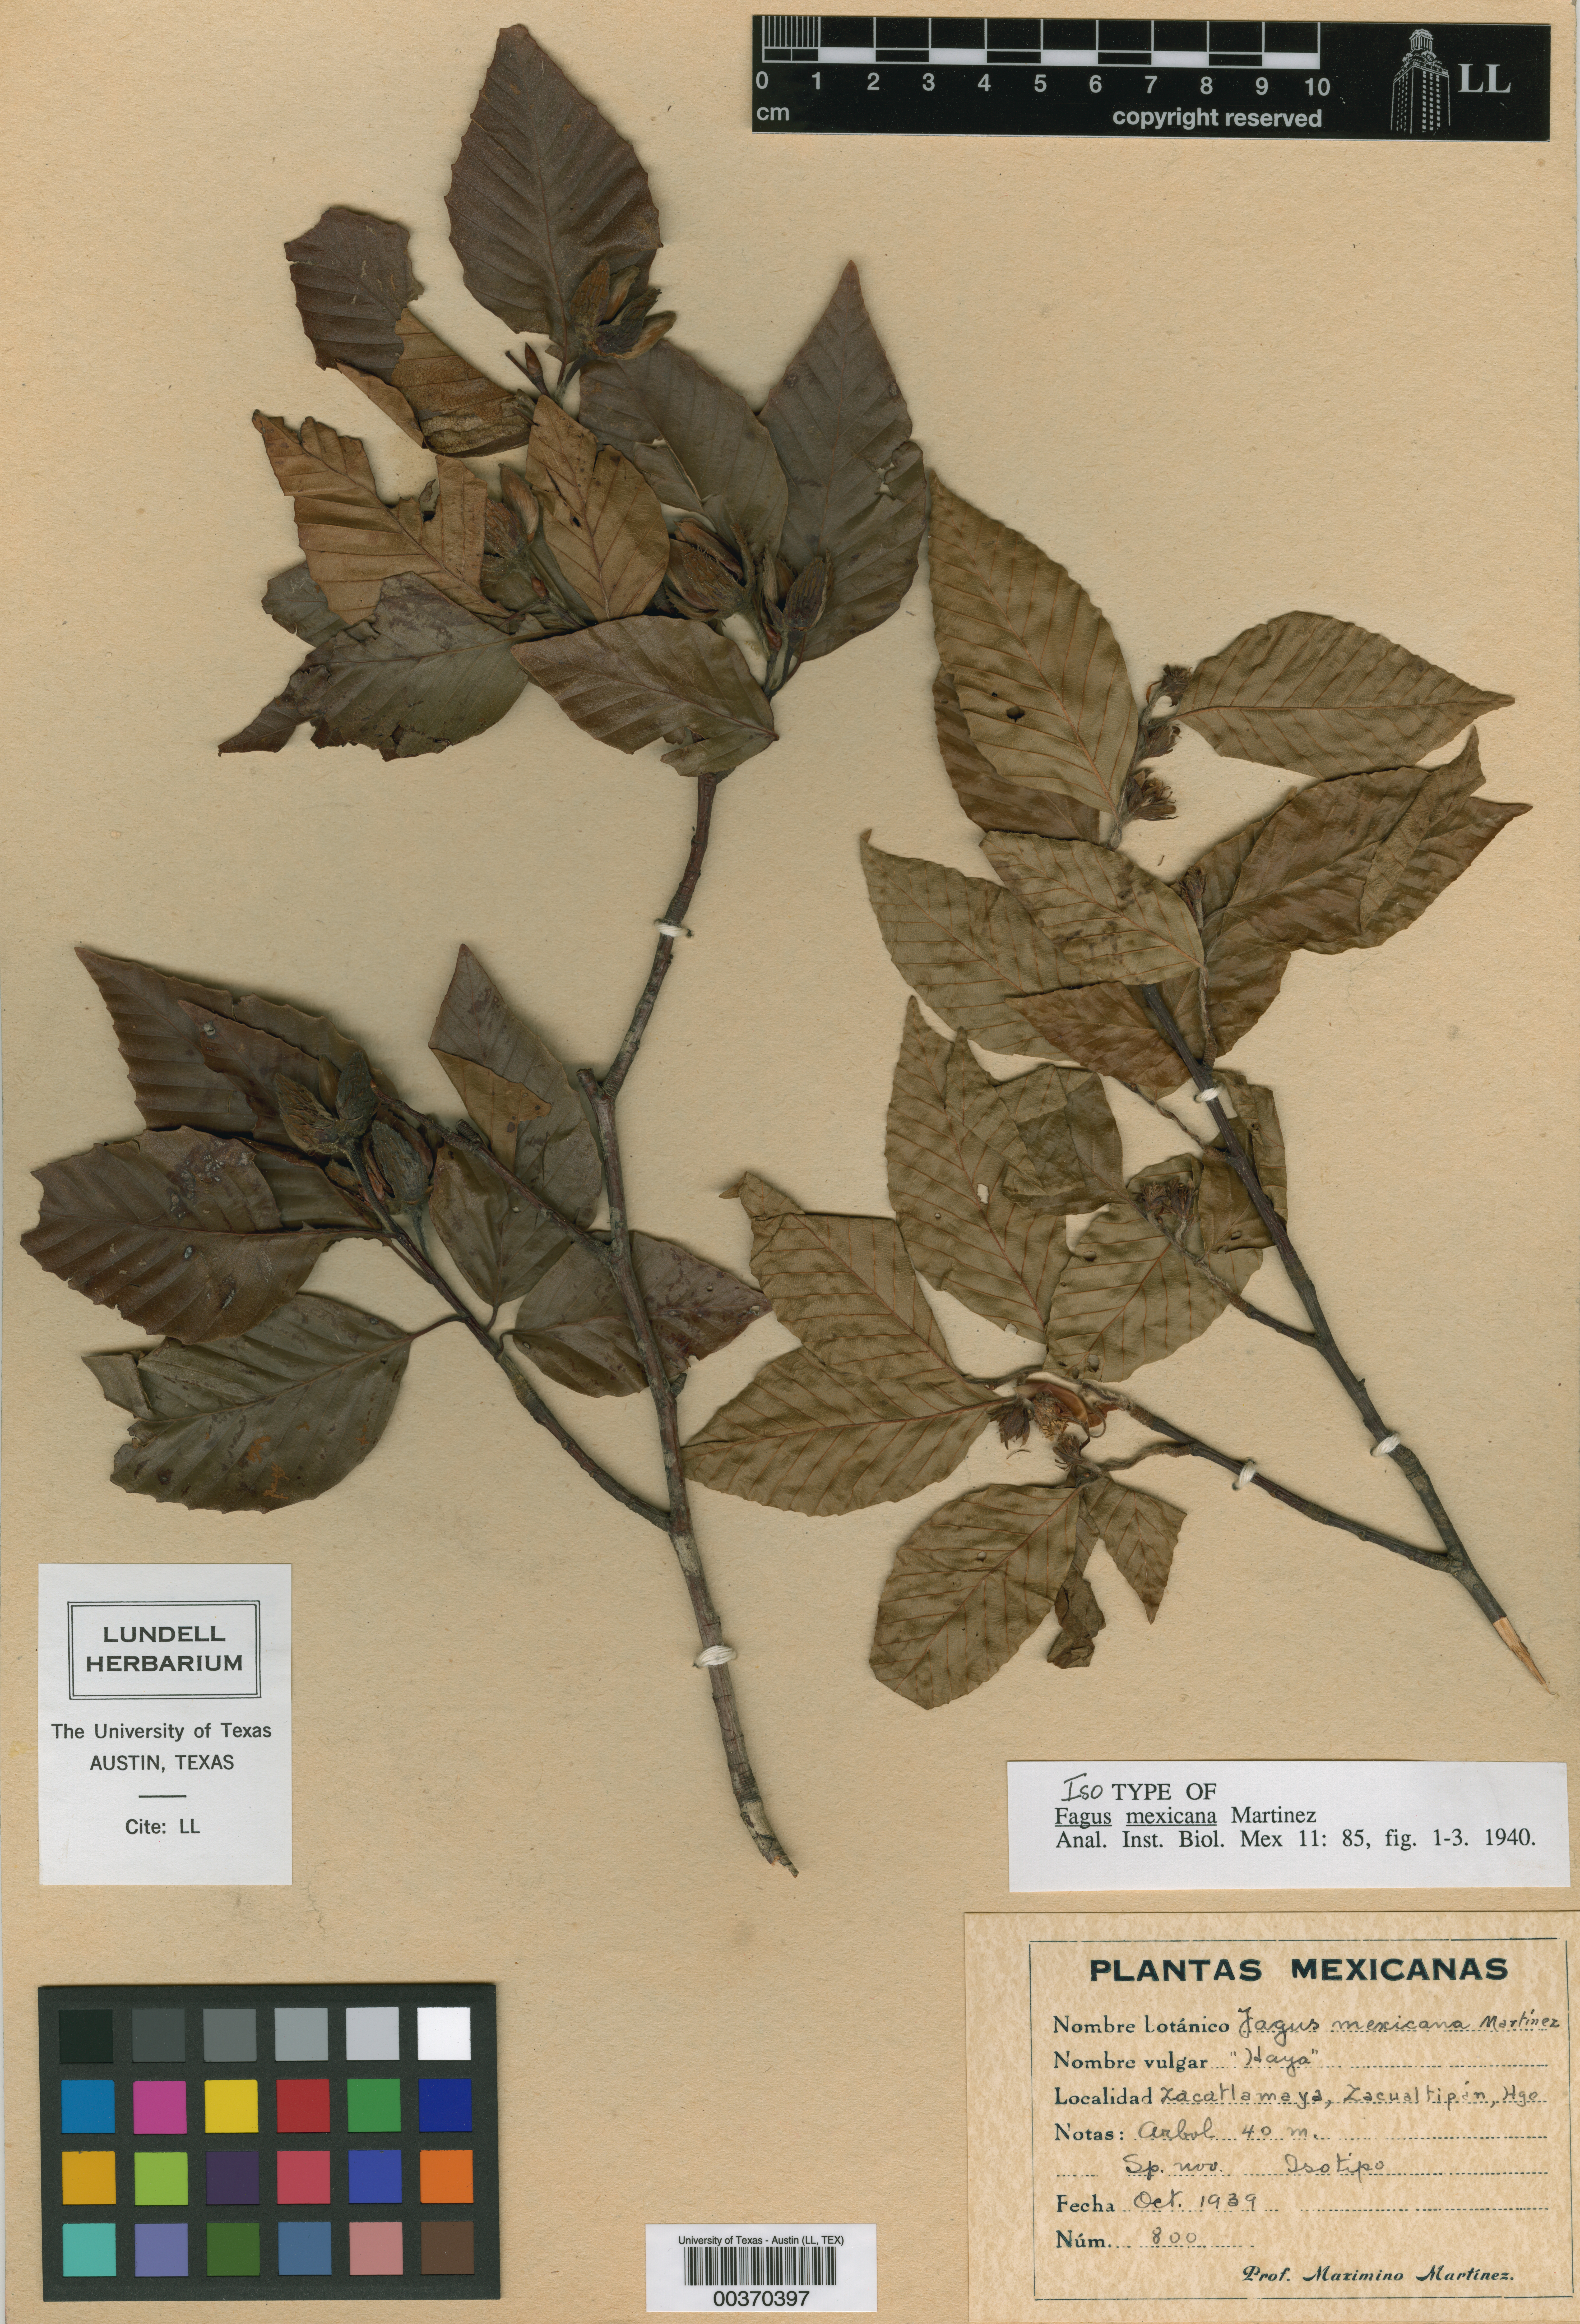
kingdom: Plantae
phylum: Tracheophyta
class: Magnoliopsida
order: Fagales
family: Fagaceae
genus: Fagus
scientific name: Fagus grandifolia
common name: American beech
